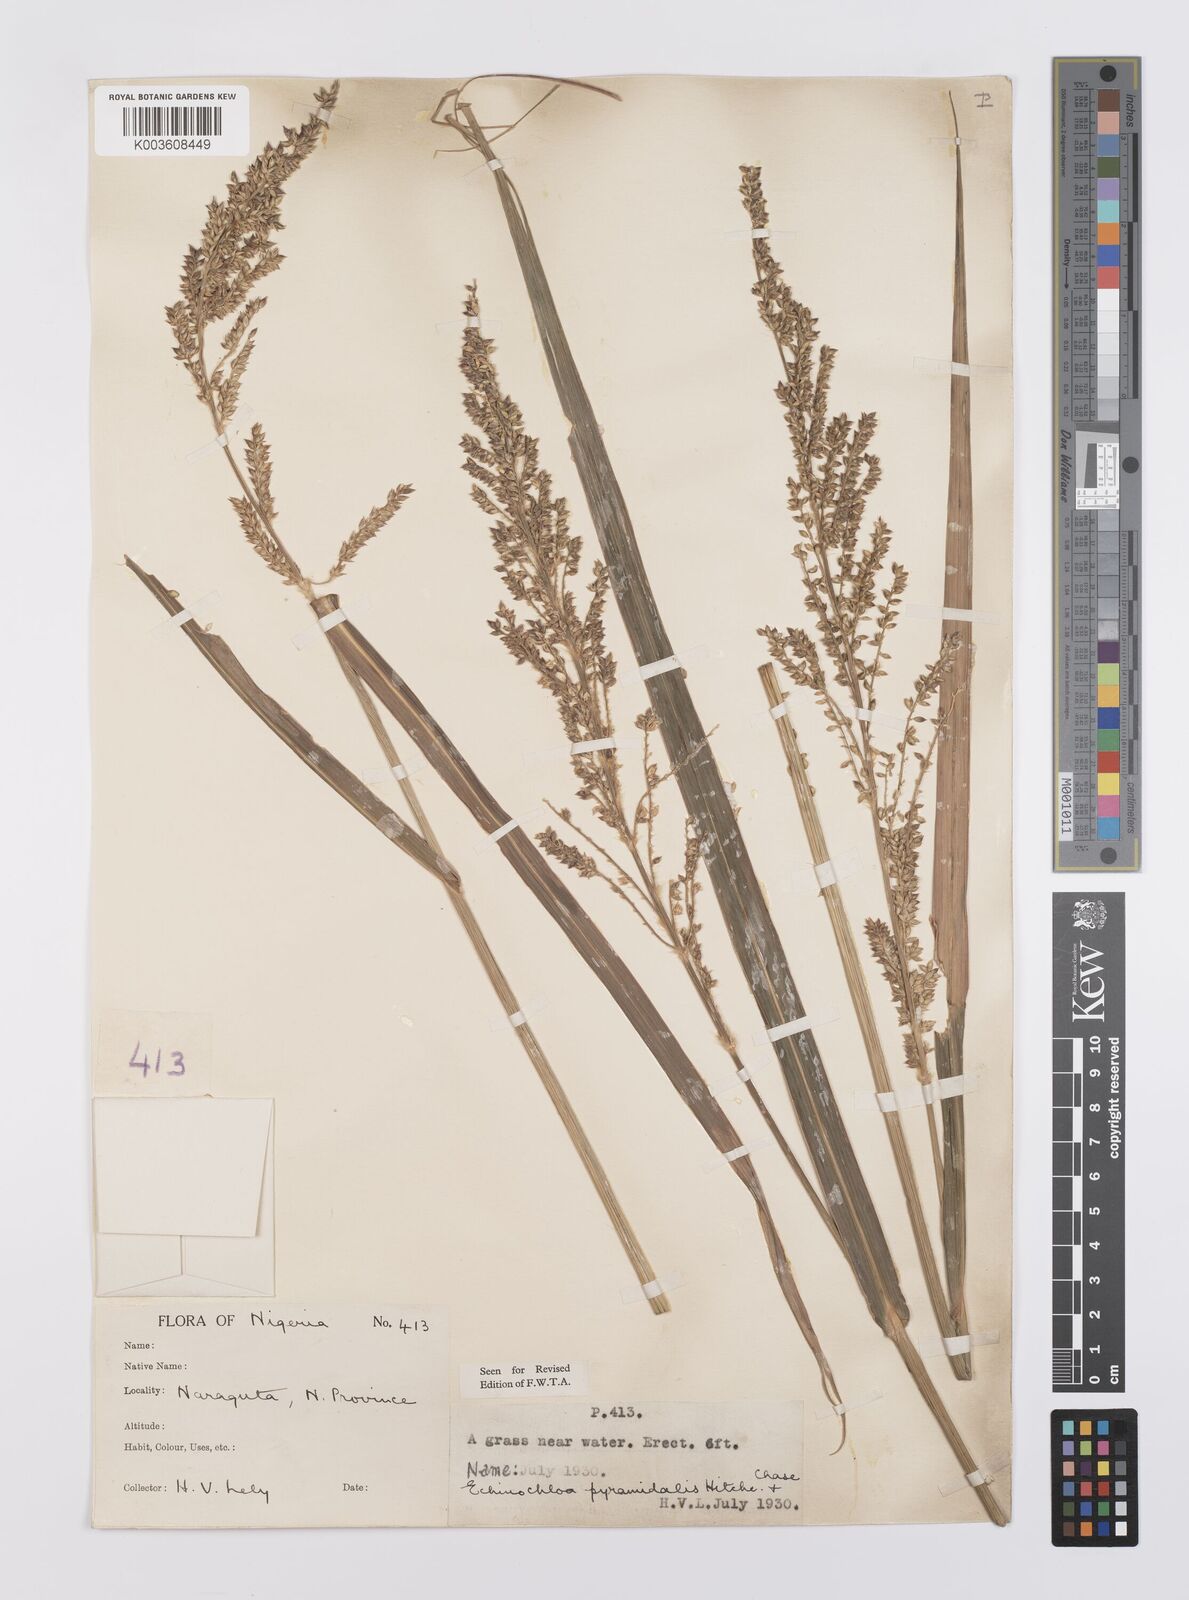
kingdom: Plantae
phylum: Tracheophyta
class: Liliopsida
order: Poales
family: Poaceae
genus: Echinochloa
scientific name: Echinochloa pyramidalis
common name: Antelope grass
